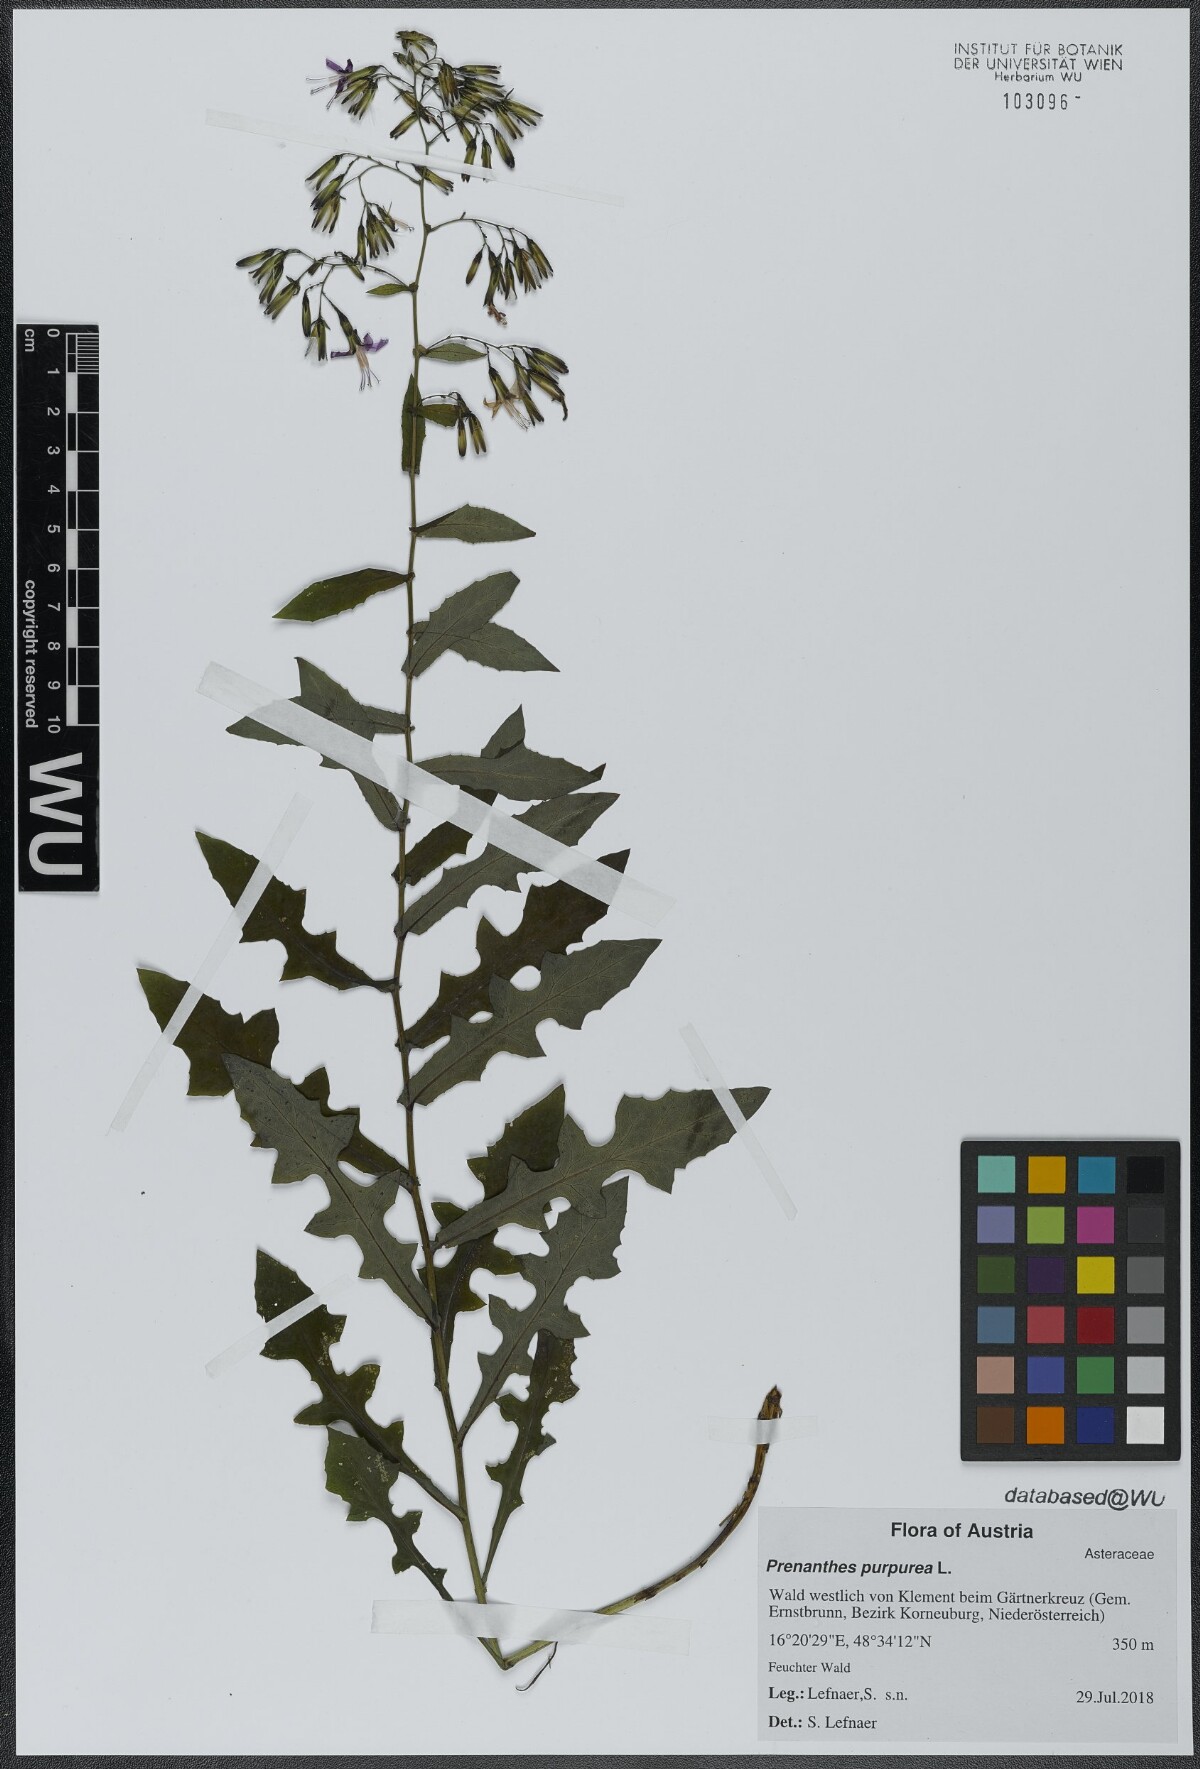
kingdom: Plantae
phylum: Tracheophyta
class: Magnoliopsida
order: Asterales
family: Asteraceae
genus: Prenanthes
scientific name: Prenanthes purpurea
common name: Purple lettuce
